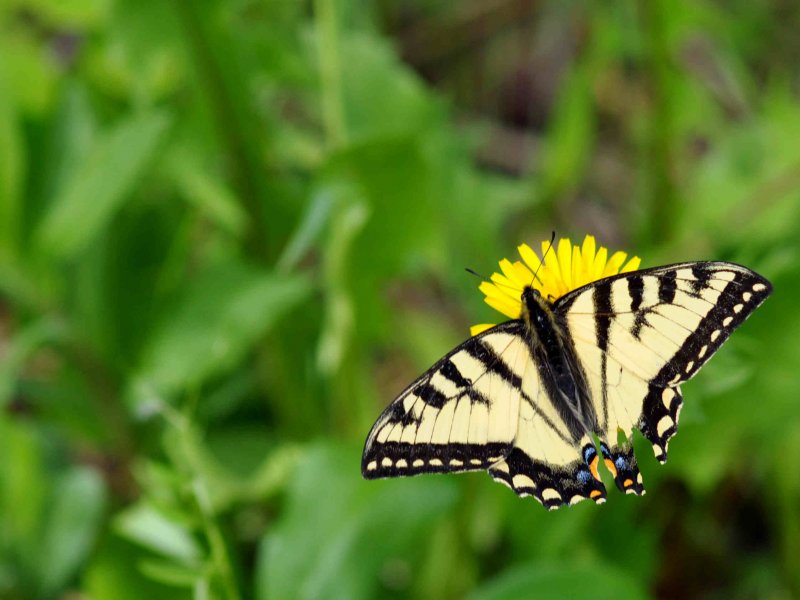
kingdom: Animalia
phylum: Arthropoda
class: Insecta
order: Lepidoptera
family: Papilionidae
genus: Pterourus
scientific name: Pterourus canadensis
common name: Canadian Tiger Swallowtail
